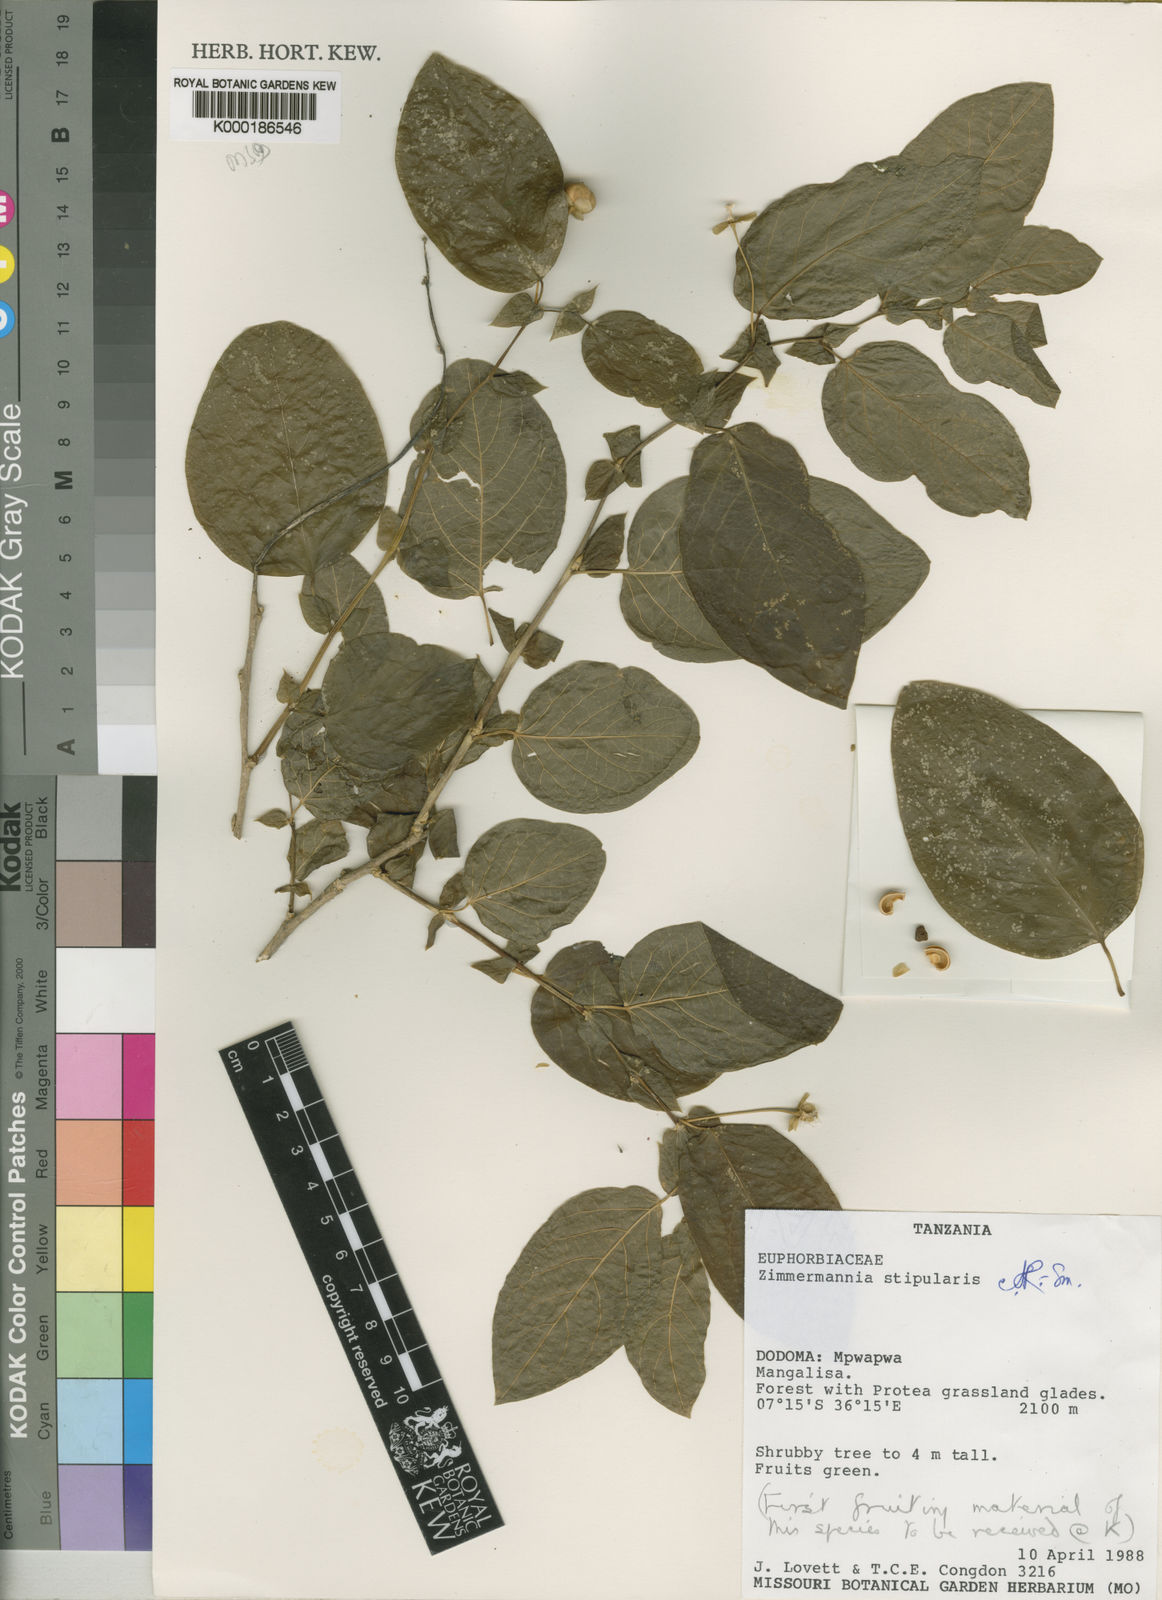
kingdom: Plantae
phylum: Tracheophyta
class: Magnoliopsida
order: Malpighiales
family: Phyllanthaceae
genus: Meineckia
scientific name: Meineckia stipularis
